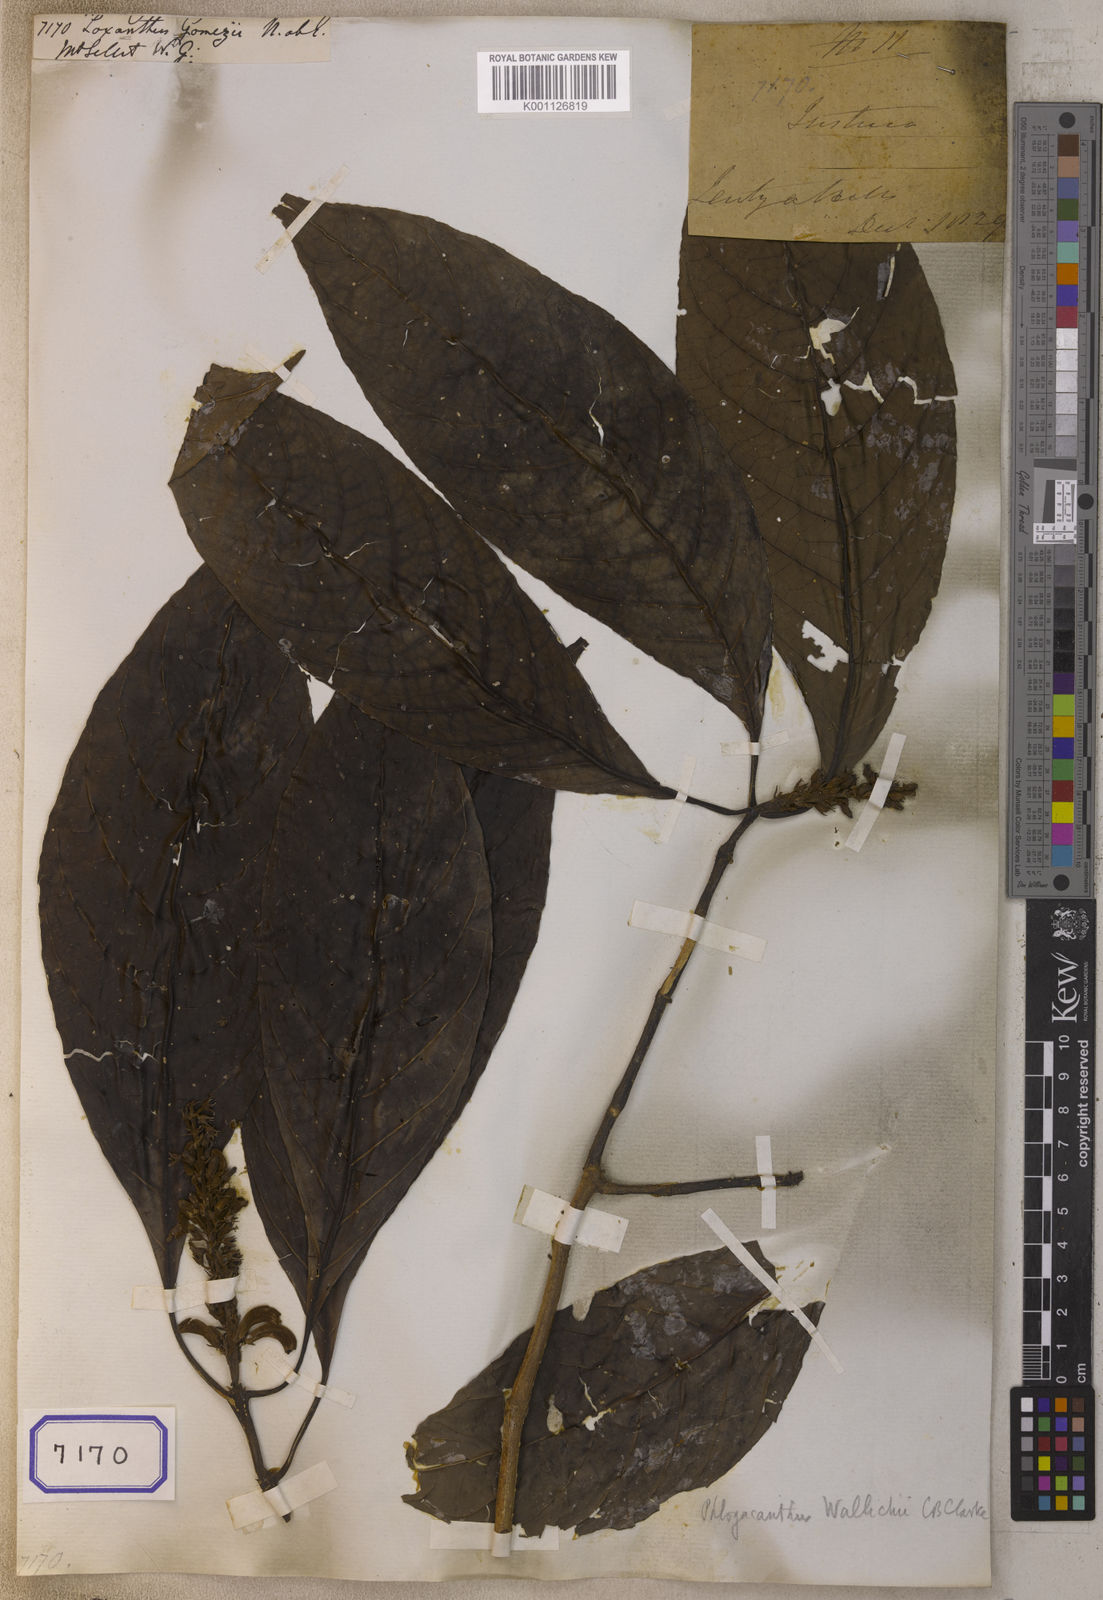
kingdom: Plantae
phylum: Tracheophyta
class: Magnoliopsida
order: Lamiales
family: Acanthaceae
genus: Phlogacanthus
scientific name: Phlogacanthus gomezii
